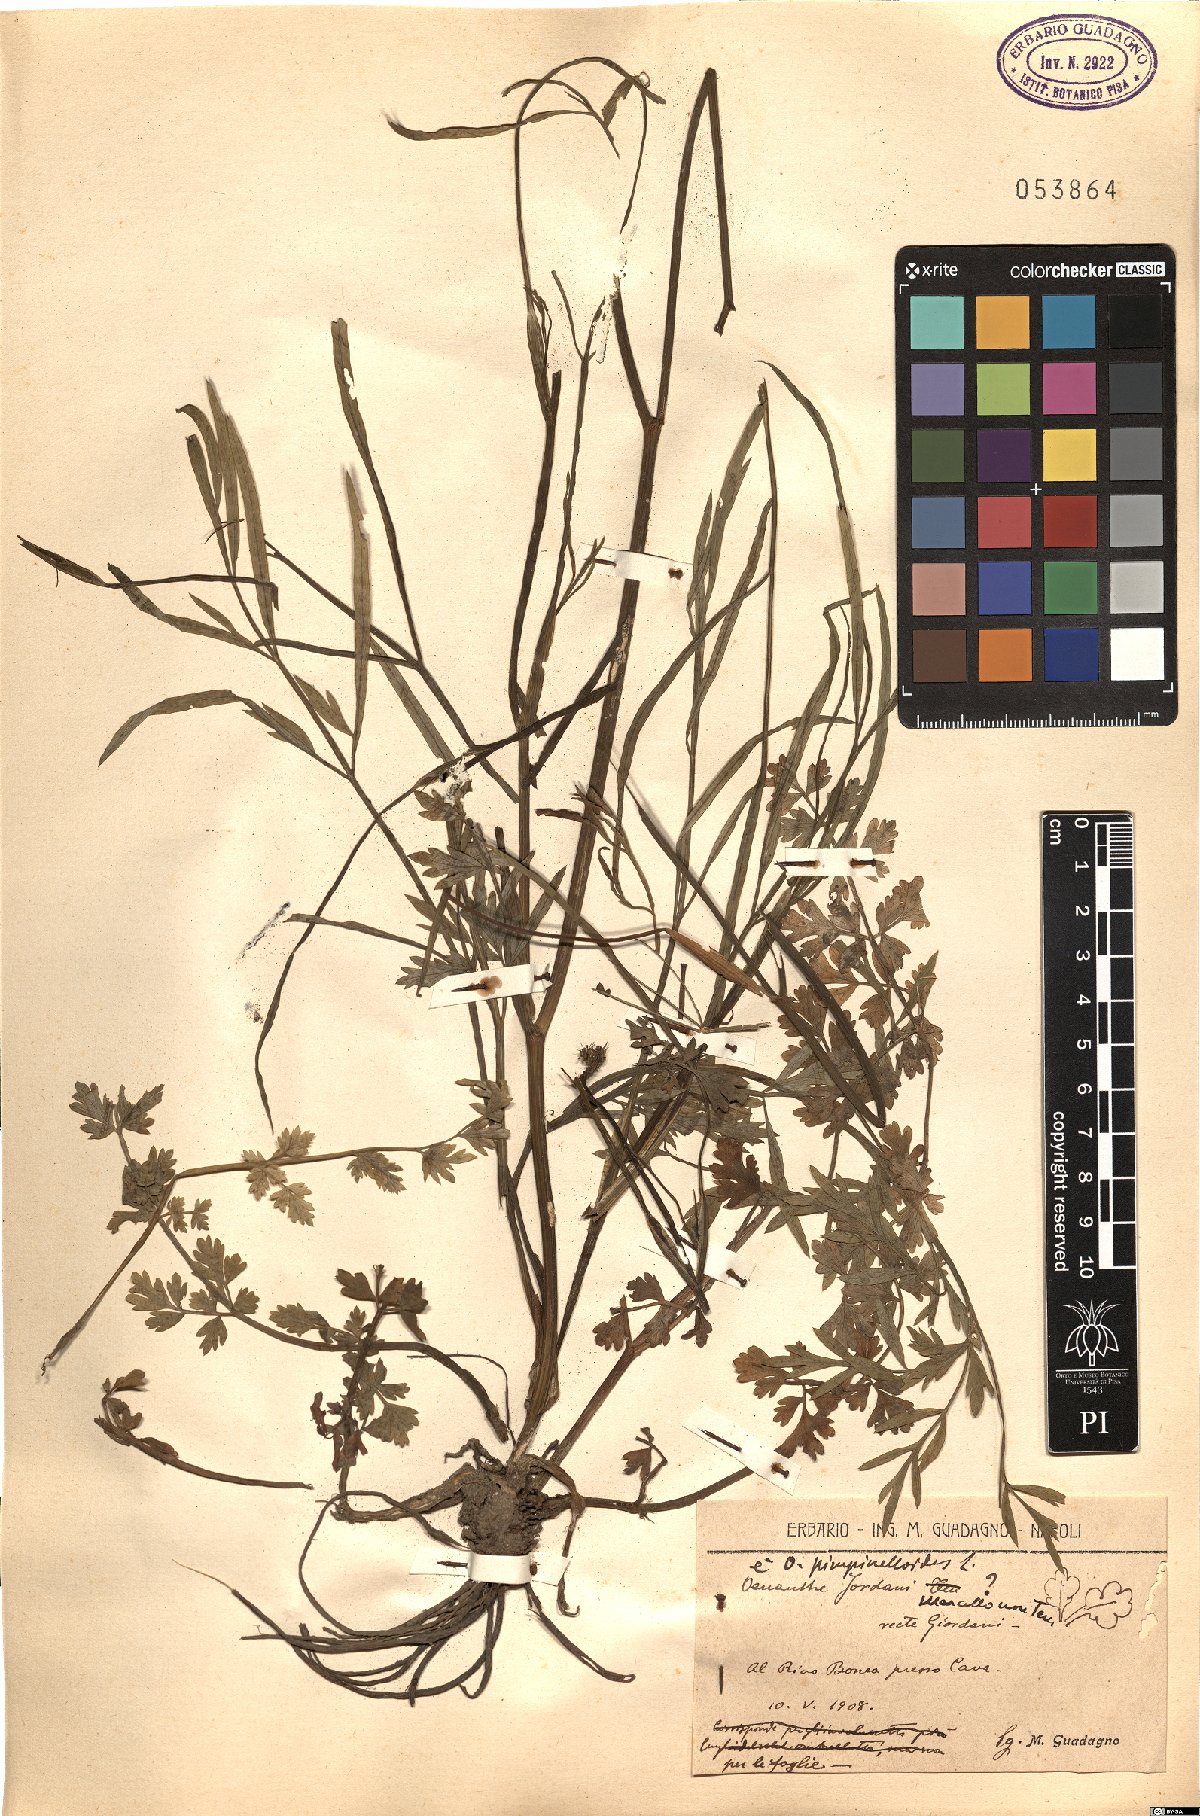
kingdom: Plantae
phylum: Tracheophyta
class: Magnoliopsida
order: Apiales
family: Apiaceae
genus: Oenanthe
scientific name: Oenanthe pimpinelloides
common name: Corky-fruited water-dropwort
